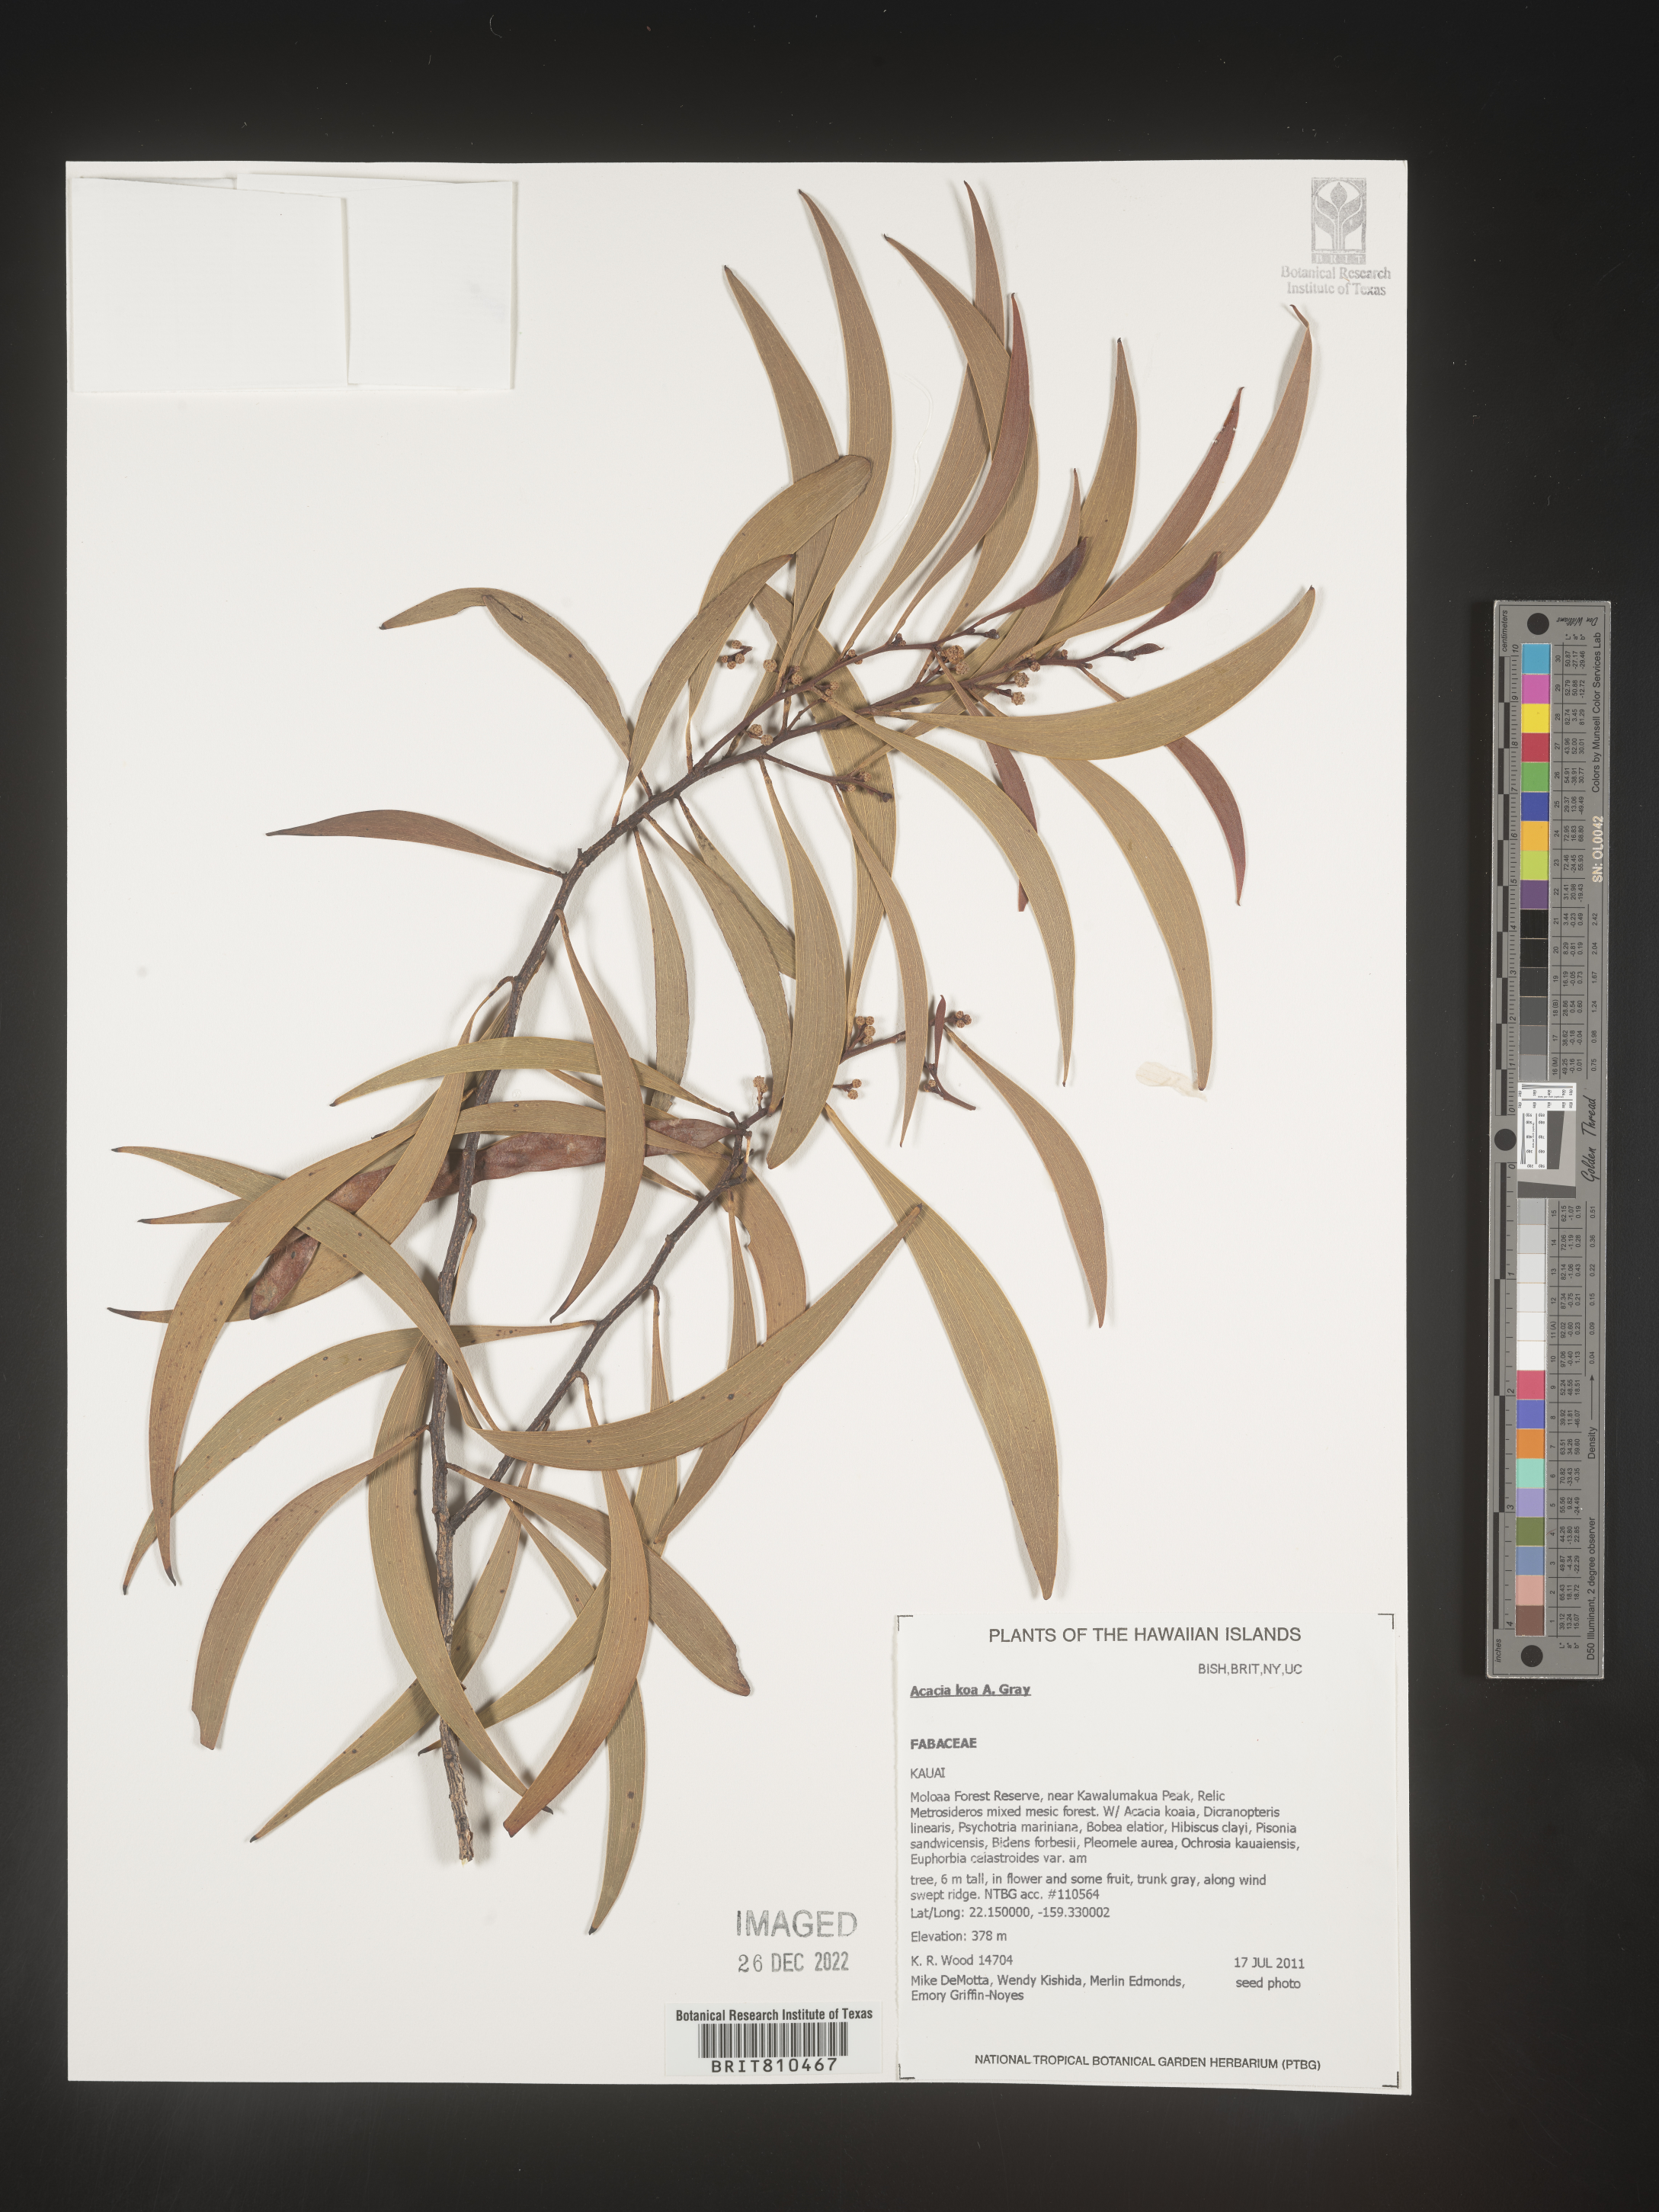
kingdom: Plantae
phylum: Tracheophyta
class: Magnoliopsida
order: Fabales
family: Fabaceae
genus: Acacia
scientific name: Acacia
